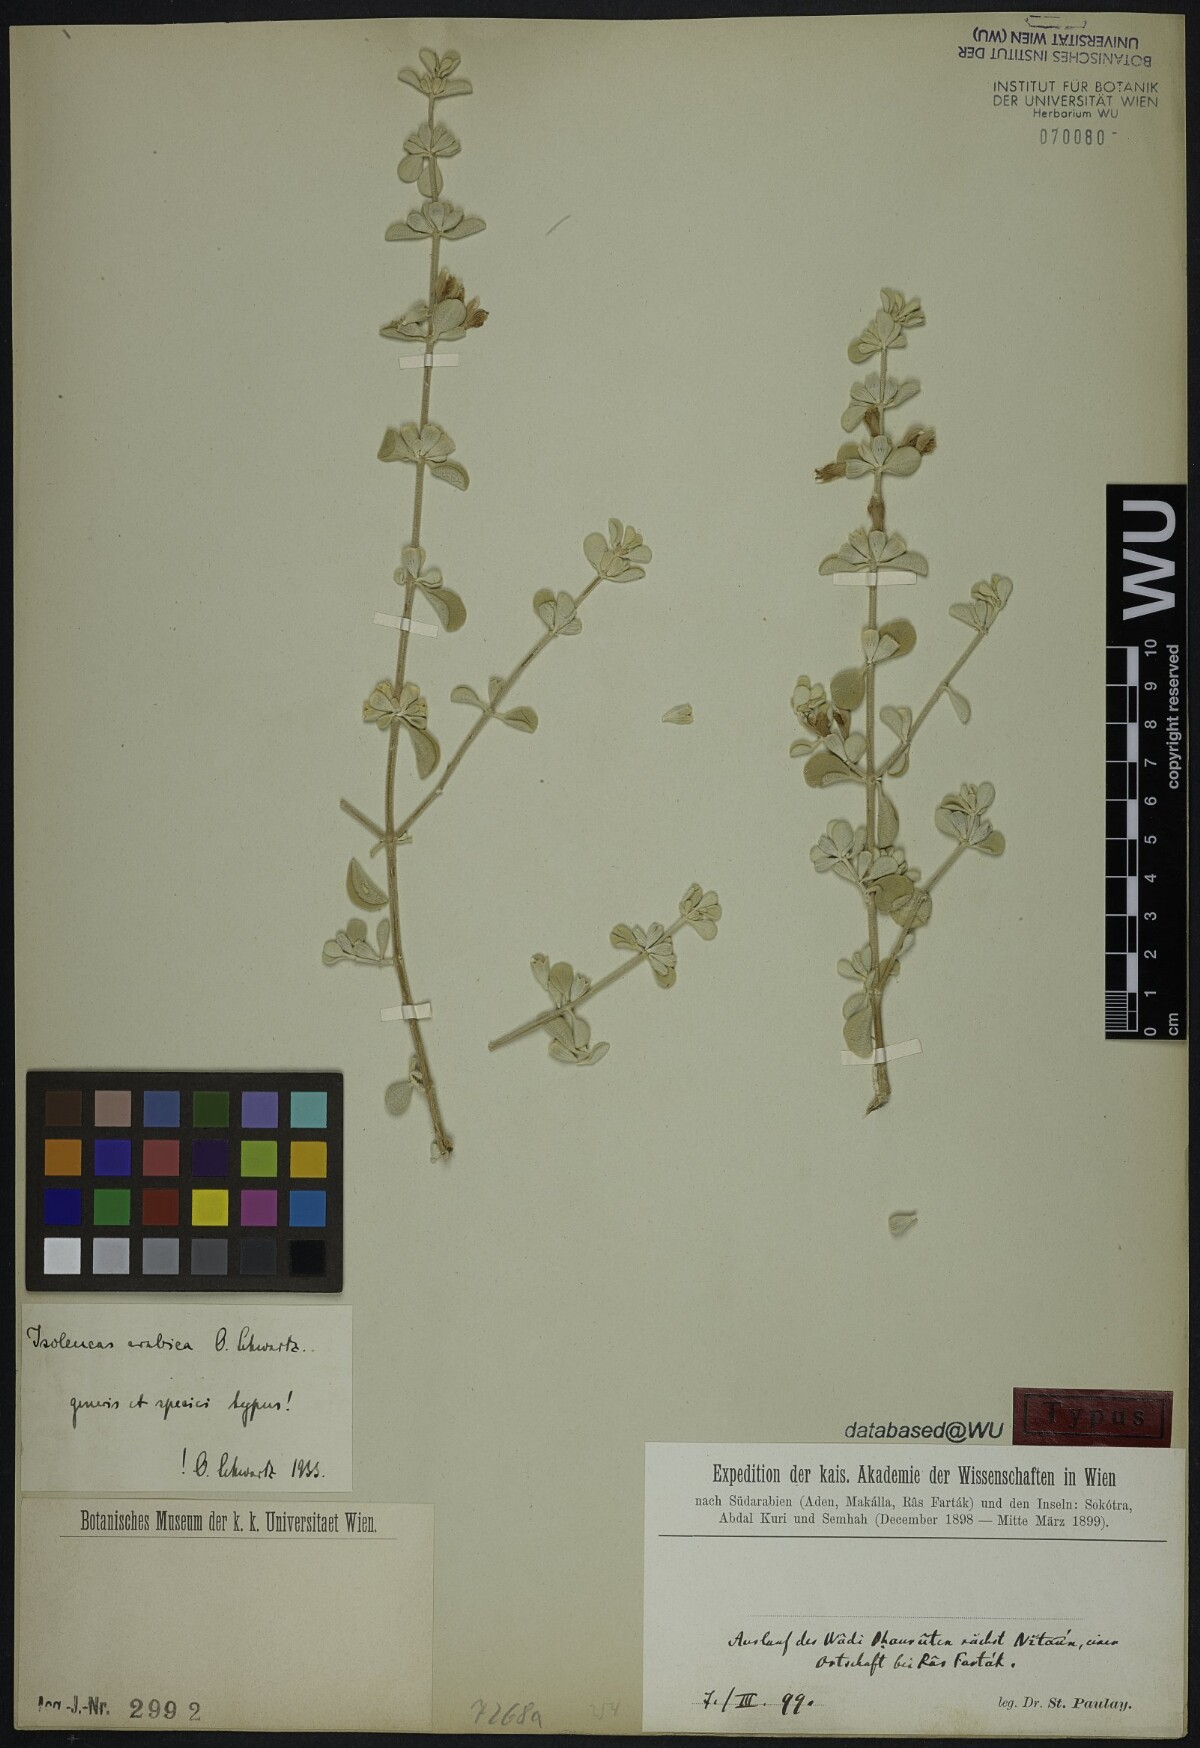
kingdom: Plantae
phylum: Tracheophyta
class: Magnoliopsida
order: Lamiales
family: Lamiaceae
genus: Isoleucas
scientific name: Isoleucas arabica
